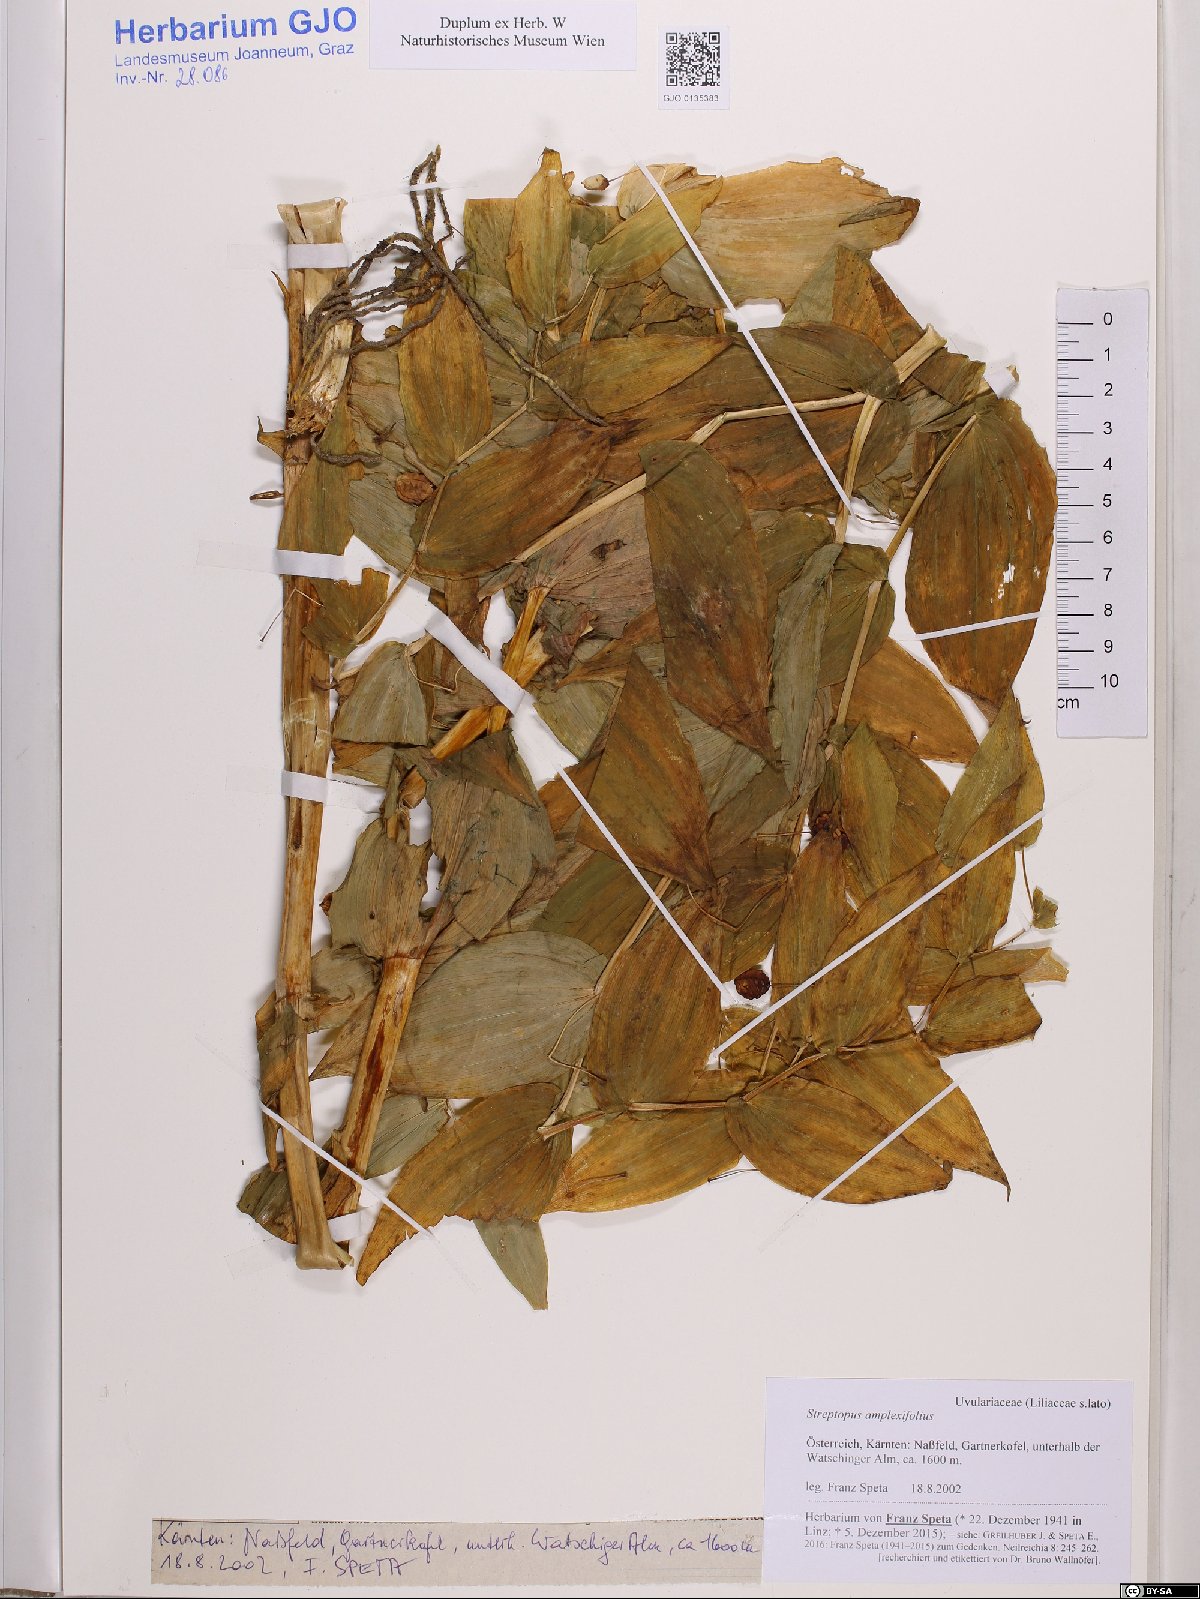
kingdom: Plantae
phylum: Tracheophyta
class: Liliopsida
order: Liliales
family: Liliaceae
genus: Streptopus
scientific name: Streptopus amplexifolius
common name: Clasp twisted stalk
